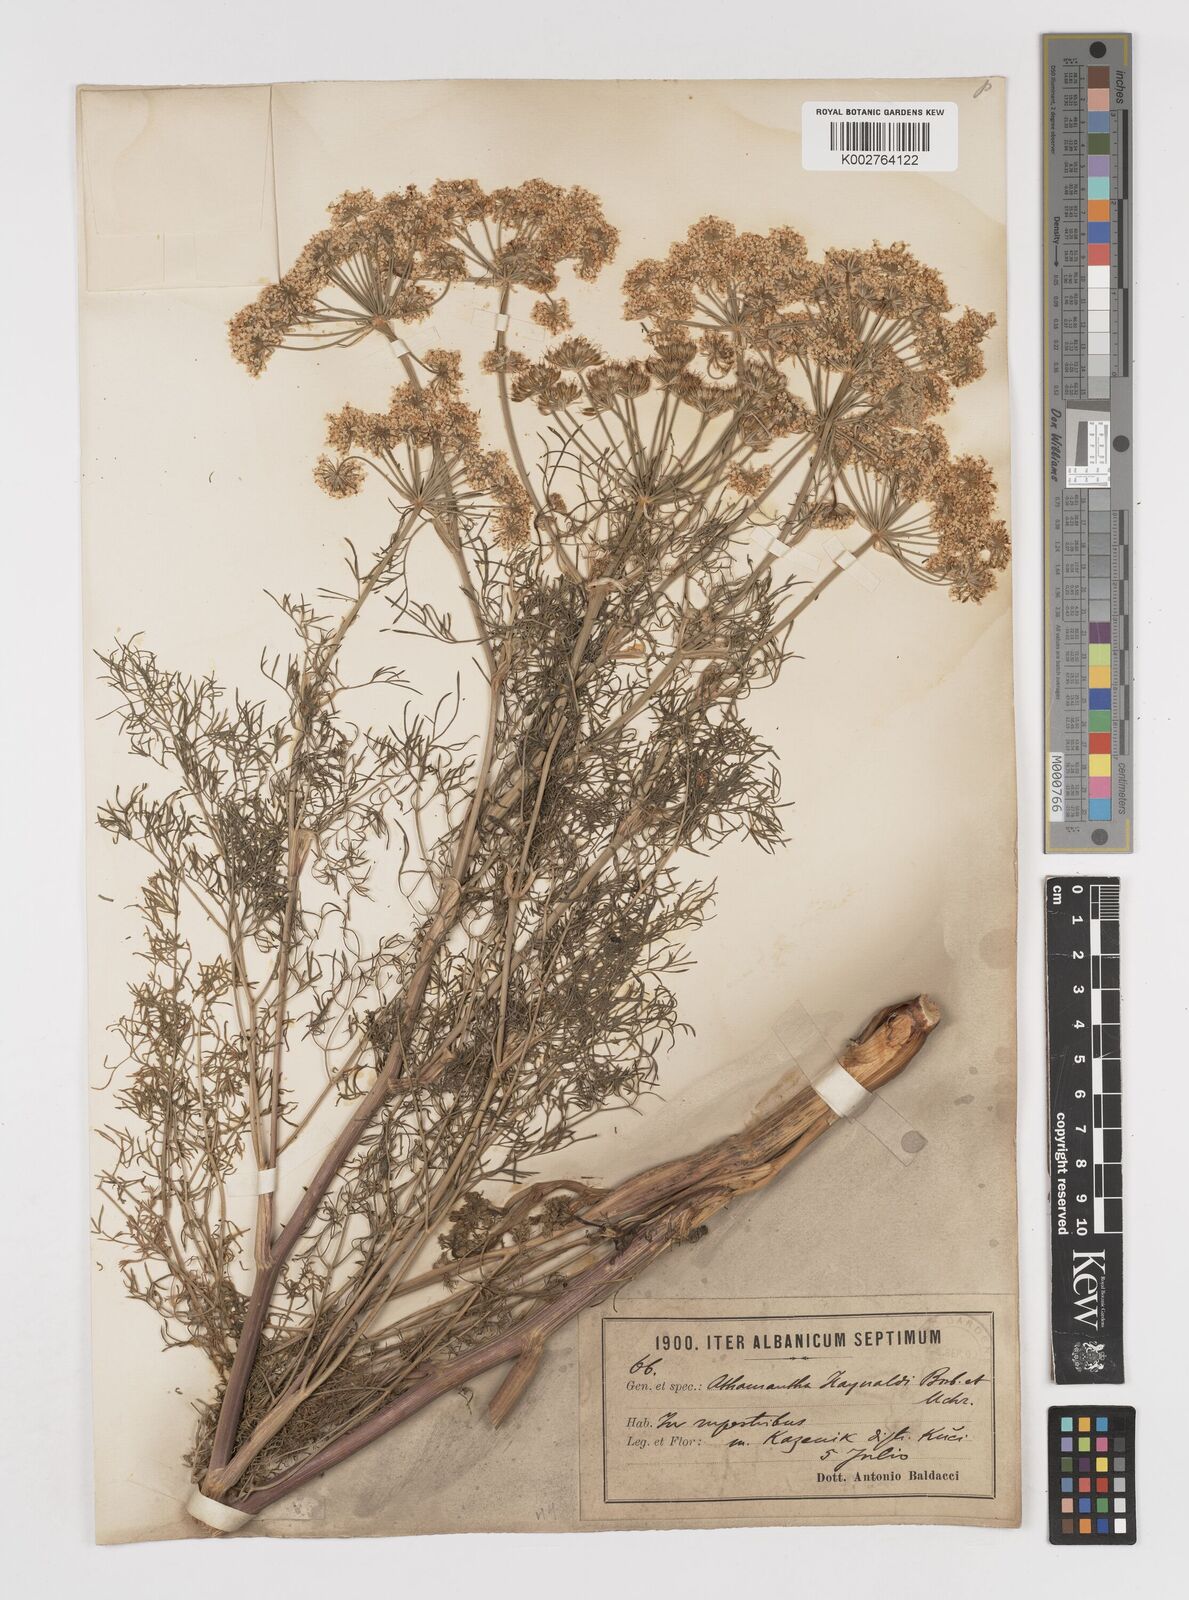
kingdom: Plantae
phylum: Tracheophyta
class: Magnoliopsida
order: Apiales
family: Apiaceae
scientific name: Apiaceae
